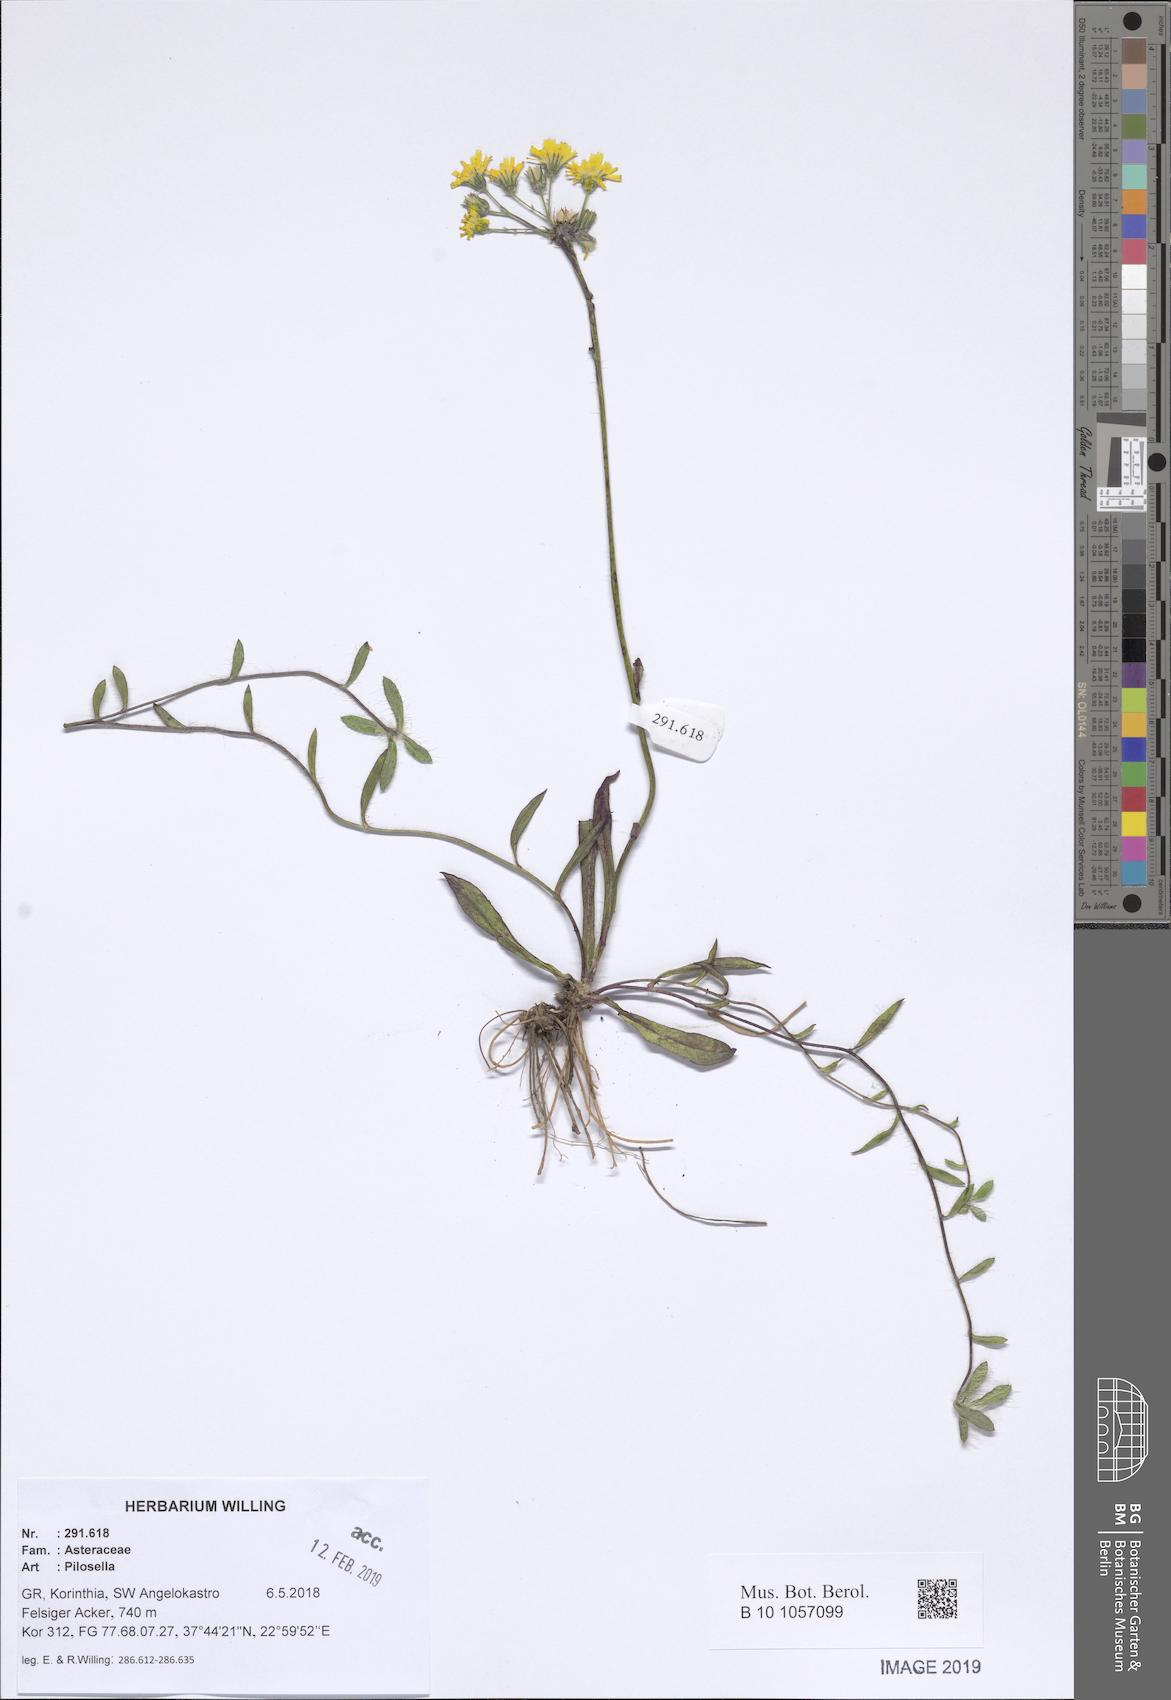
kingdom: Plantae
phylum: Tracheophyta
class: Magnoliopsida
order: Asterales
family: Asteraceae
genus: Pilosella
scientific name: Pilosella
